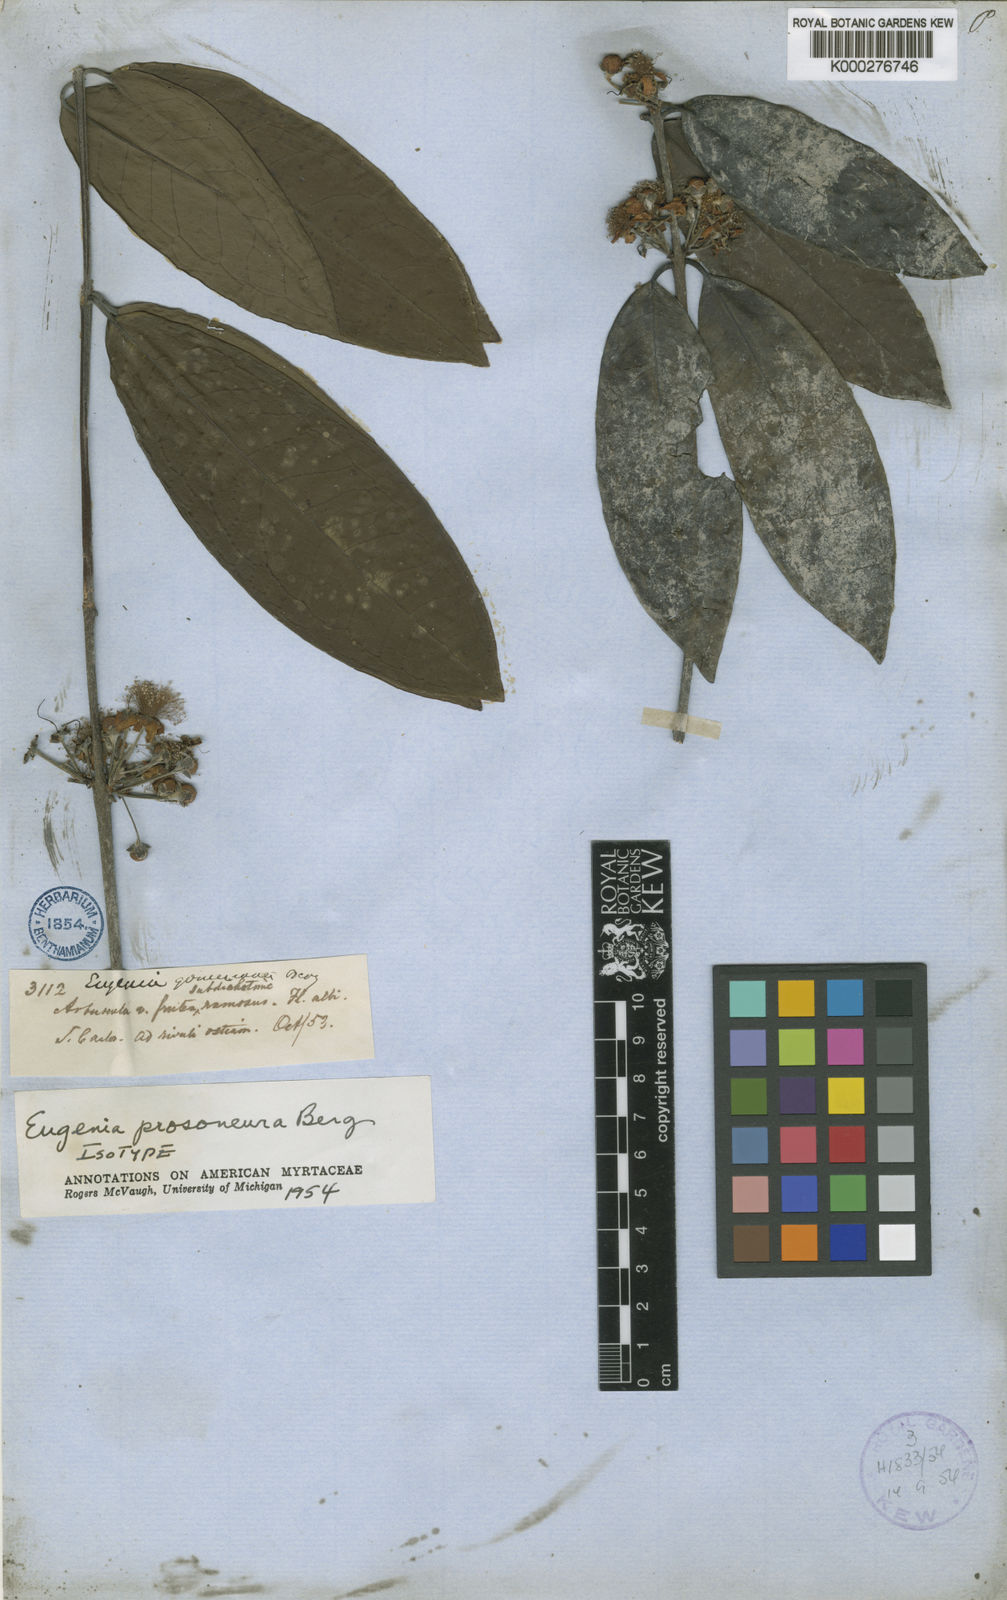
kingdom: Plantae
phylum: Tracheophyta
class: Magnoliopsida
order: Myrtales
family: Myrtaceae
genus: Eugenia
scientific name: Eugenia gomesiana
